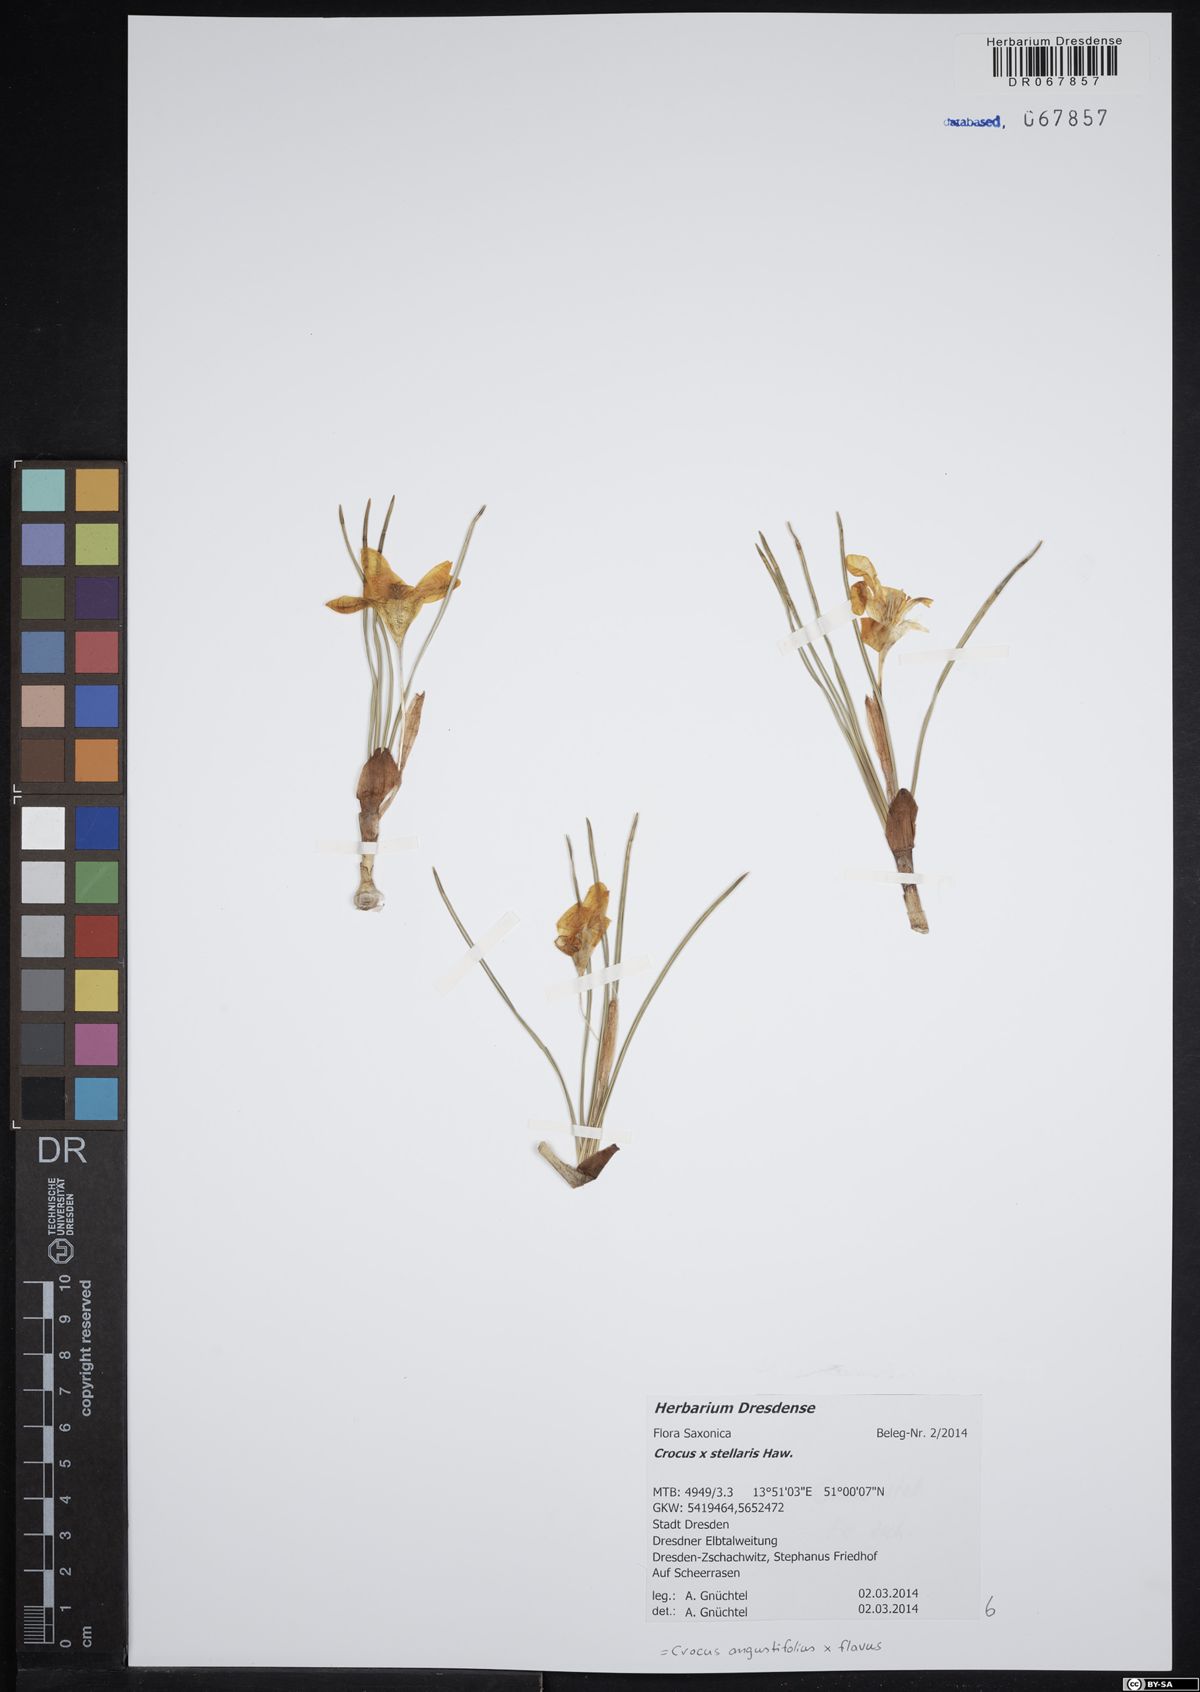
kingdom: Plantae
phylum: Tracheophyta
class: Liliopsida
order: Asparagales
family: Iridaceae
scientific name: Iridaceae
